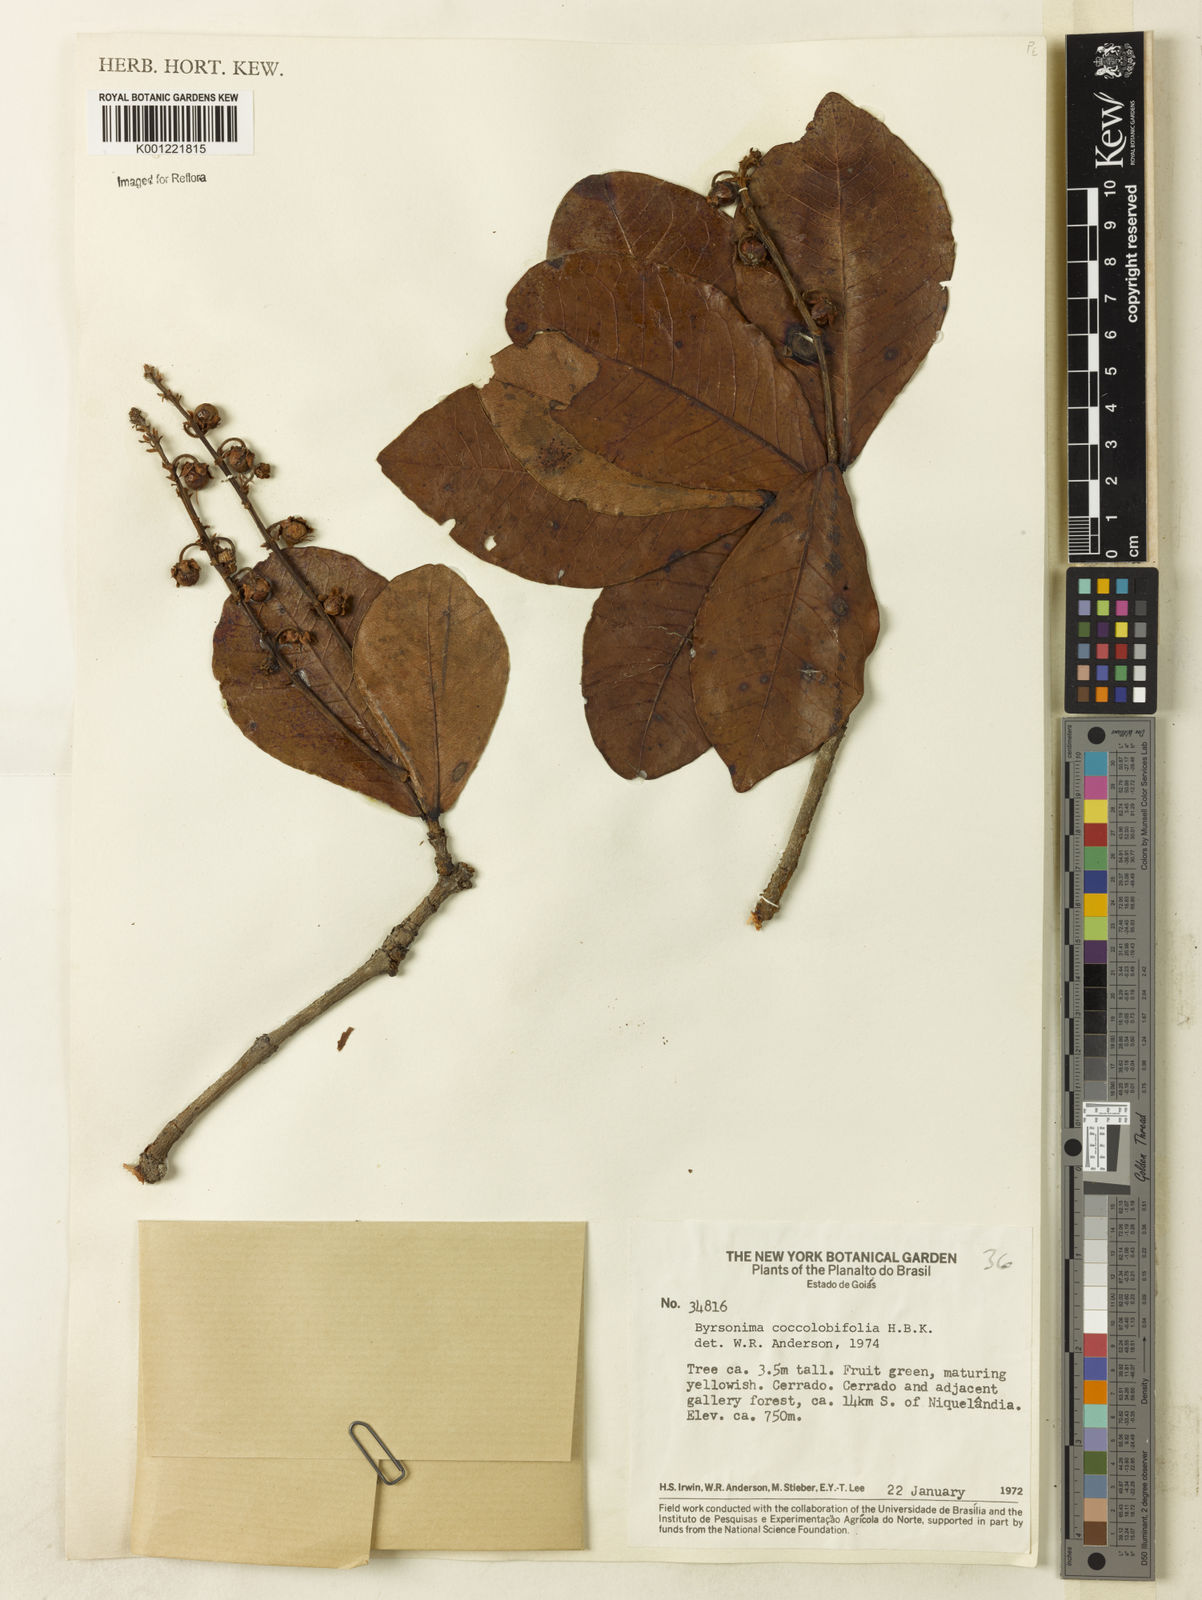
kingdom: Plantae
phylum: Tracheophyta
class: Magnoliopsida
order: Malpighiales
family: Malpighiaceae
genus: Byrsonima
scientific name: Byrsonima coccolobifolia
